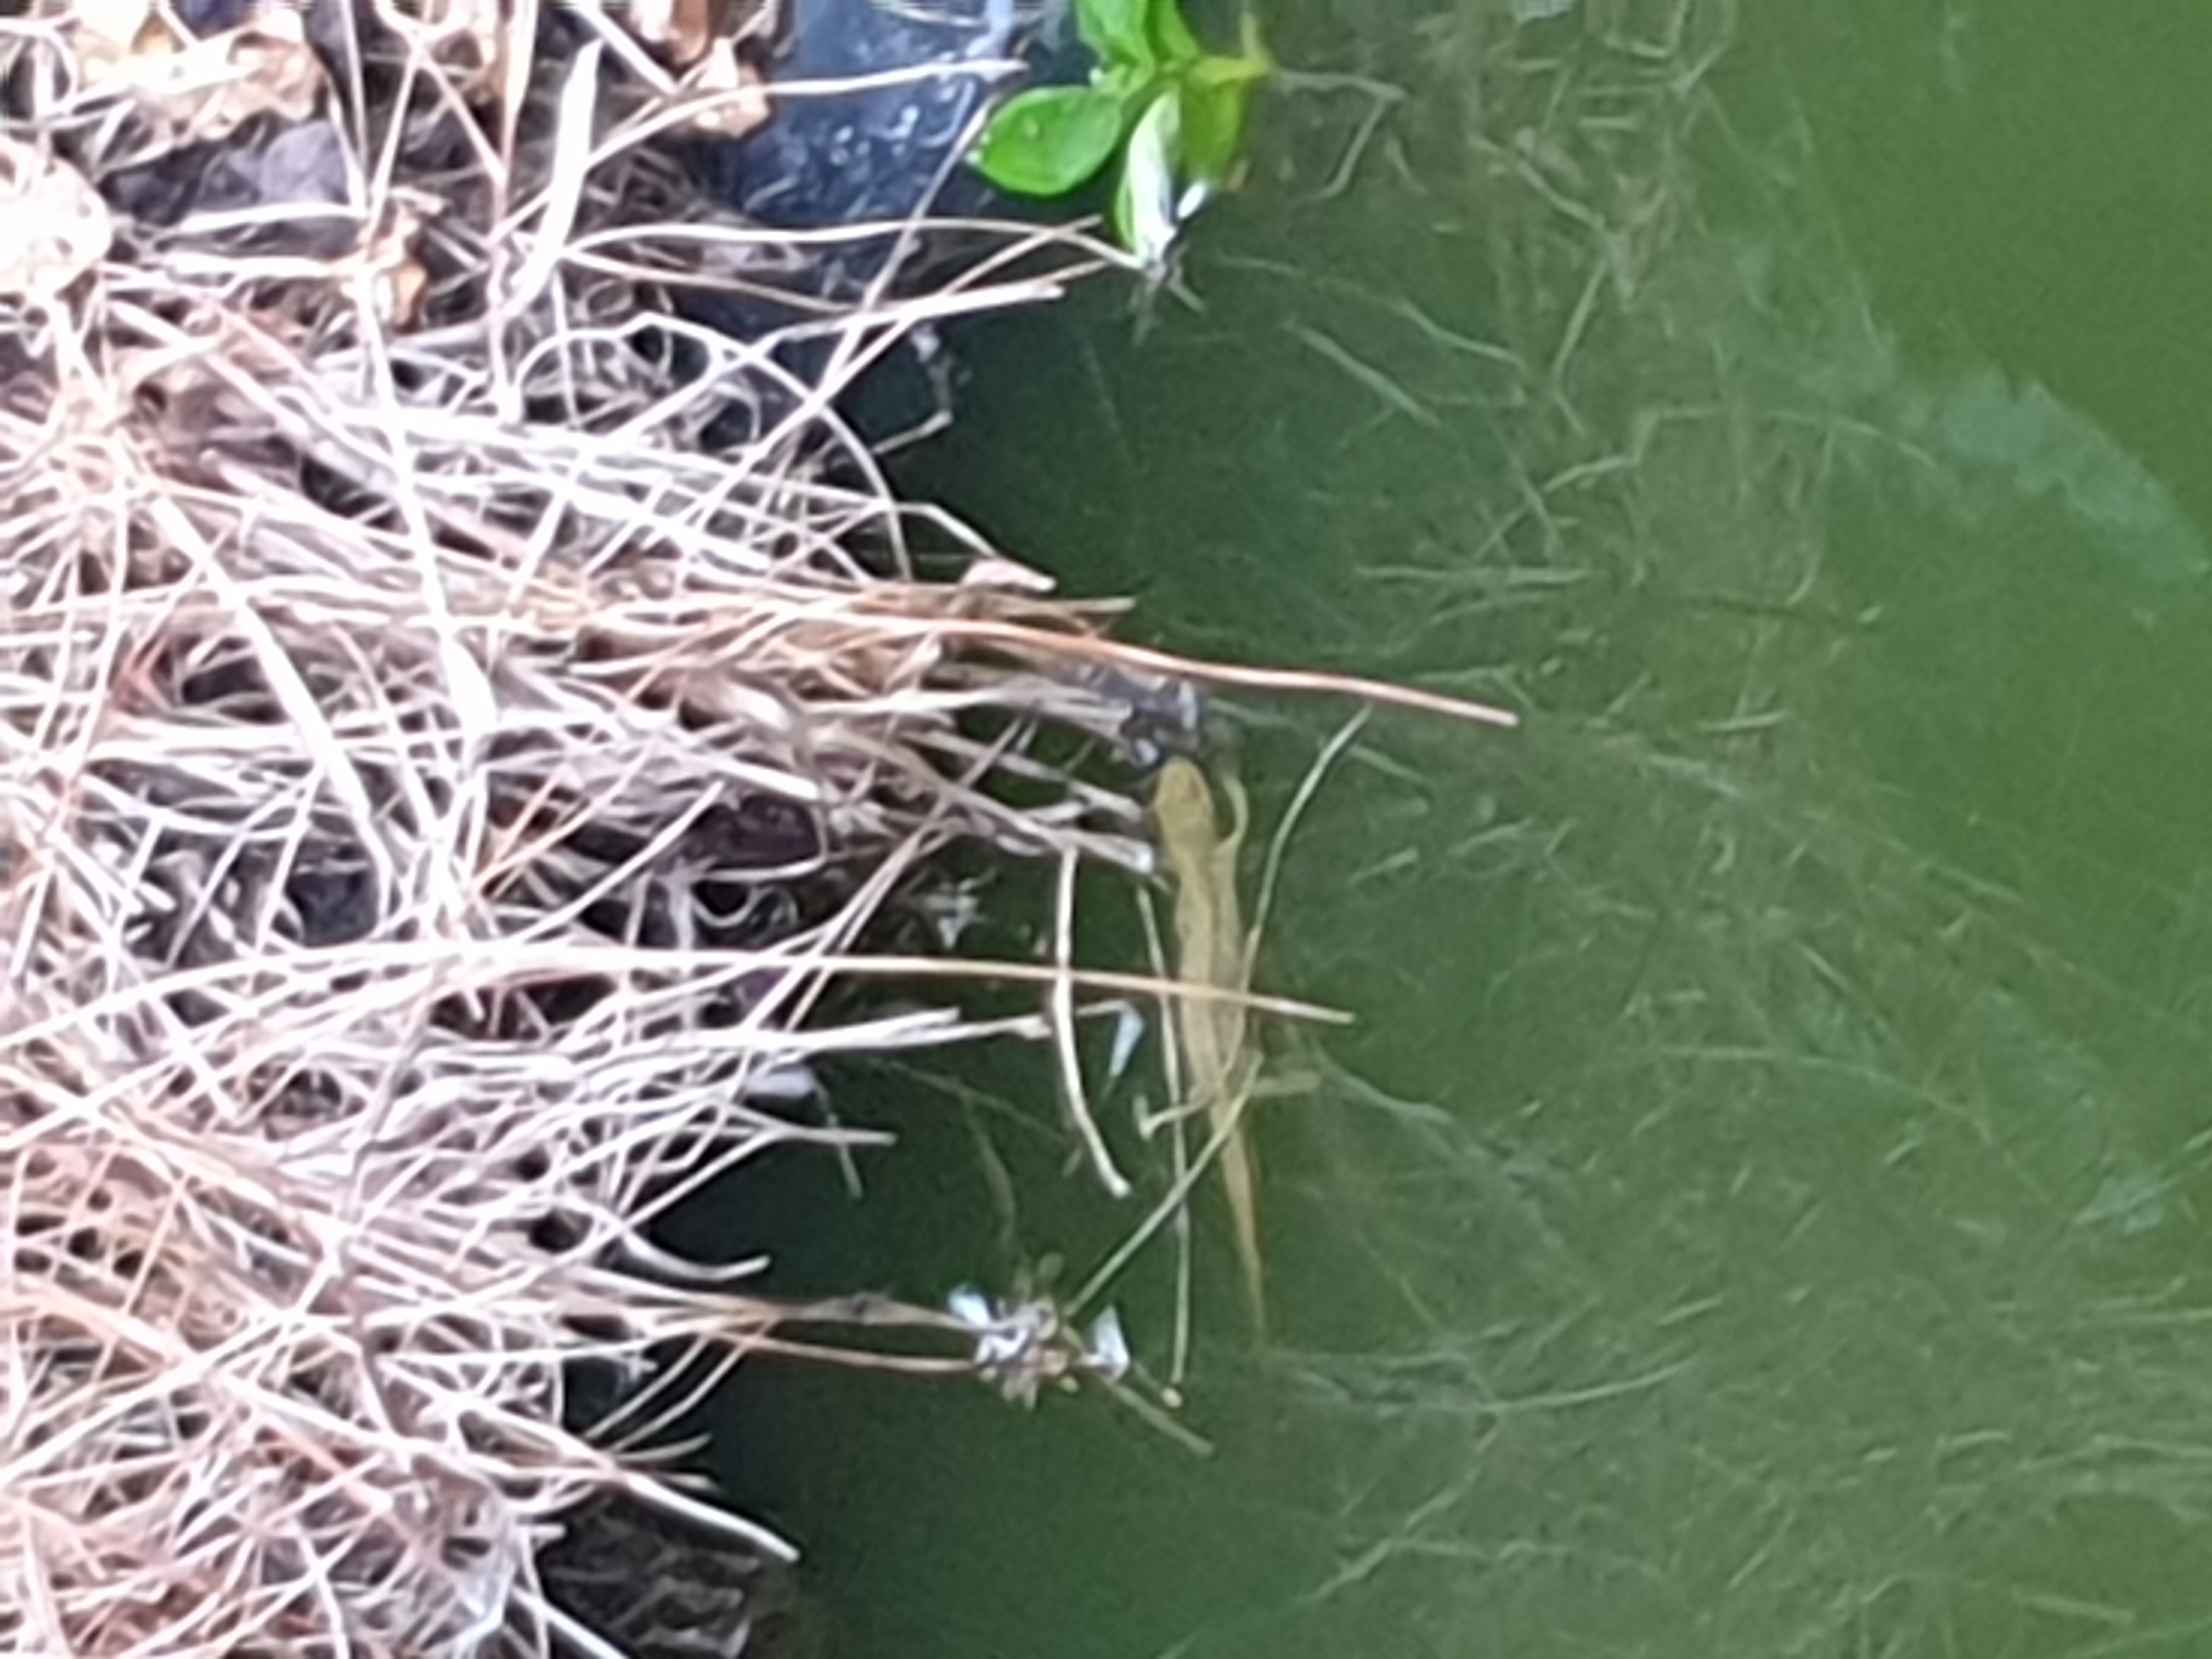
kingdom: Animalia
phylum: Chordata
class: Amphibia
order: Caudata
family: Salamandridae
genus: Lissotriton
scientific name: Lissotriton vulgaris
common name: Lille vandsalamander
